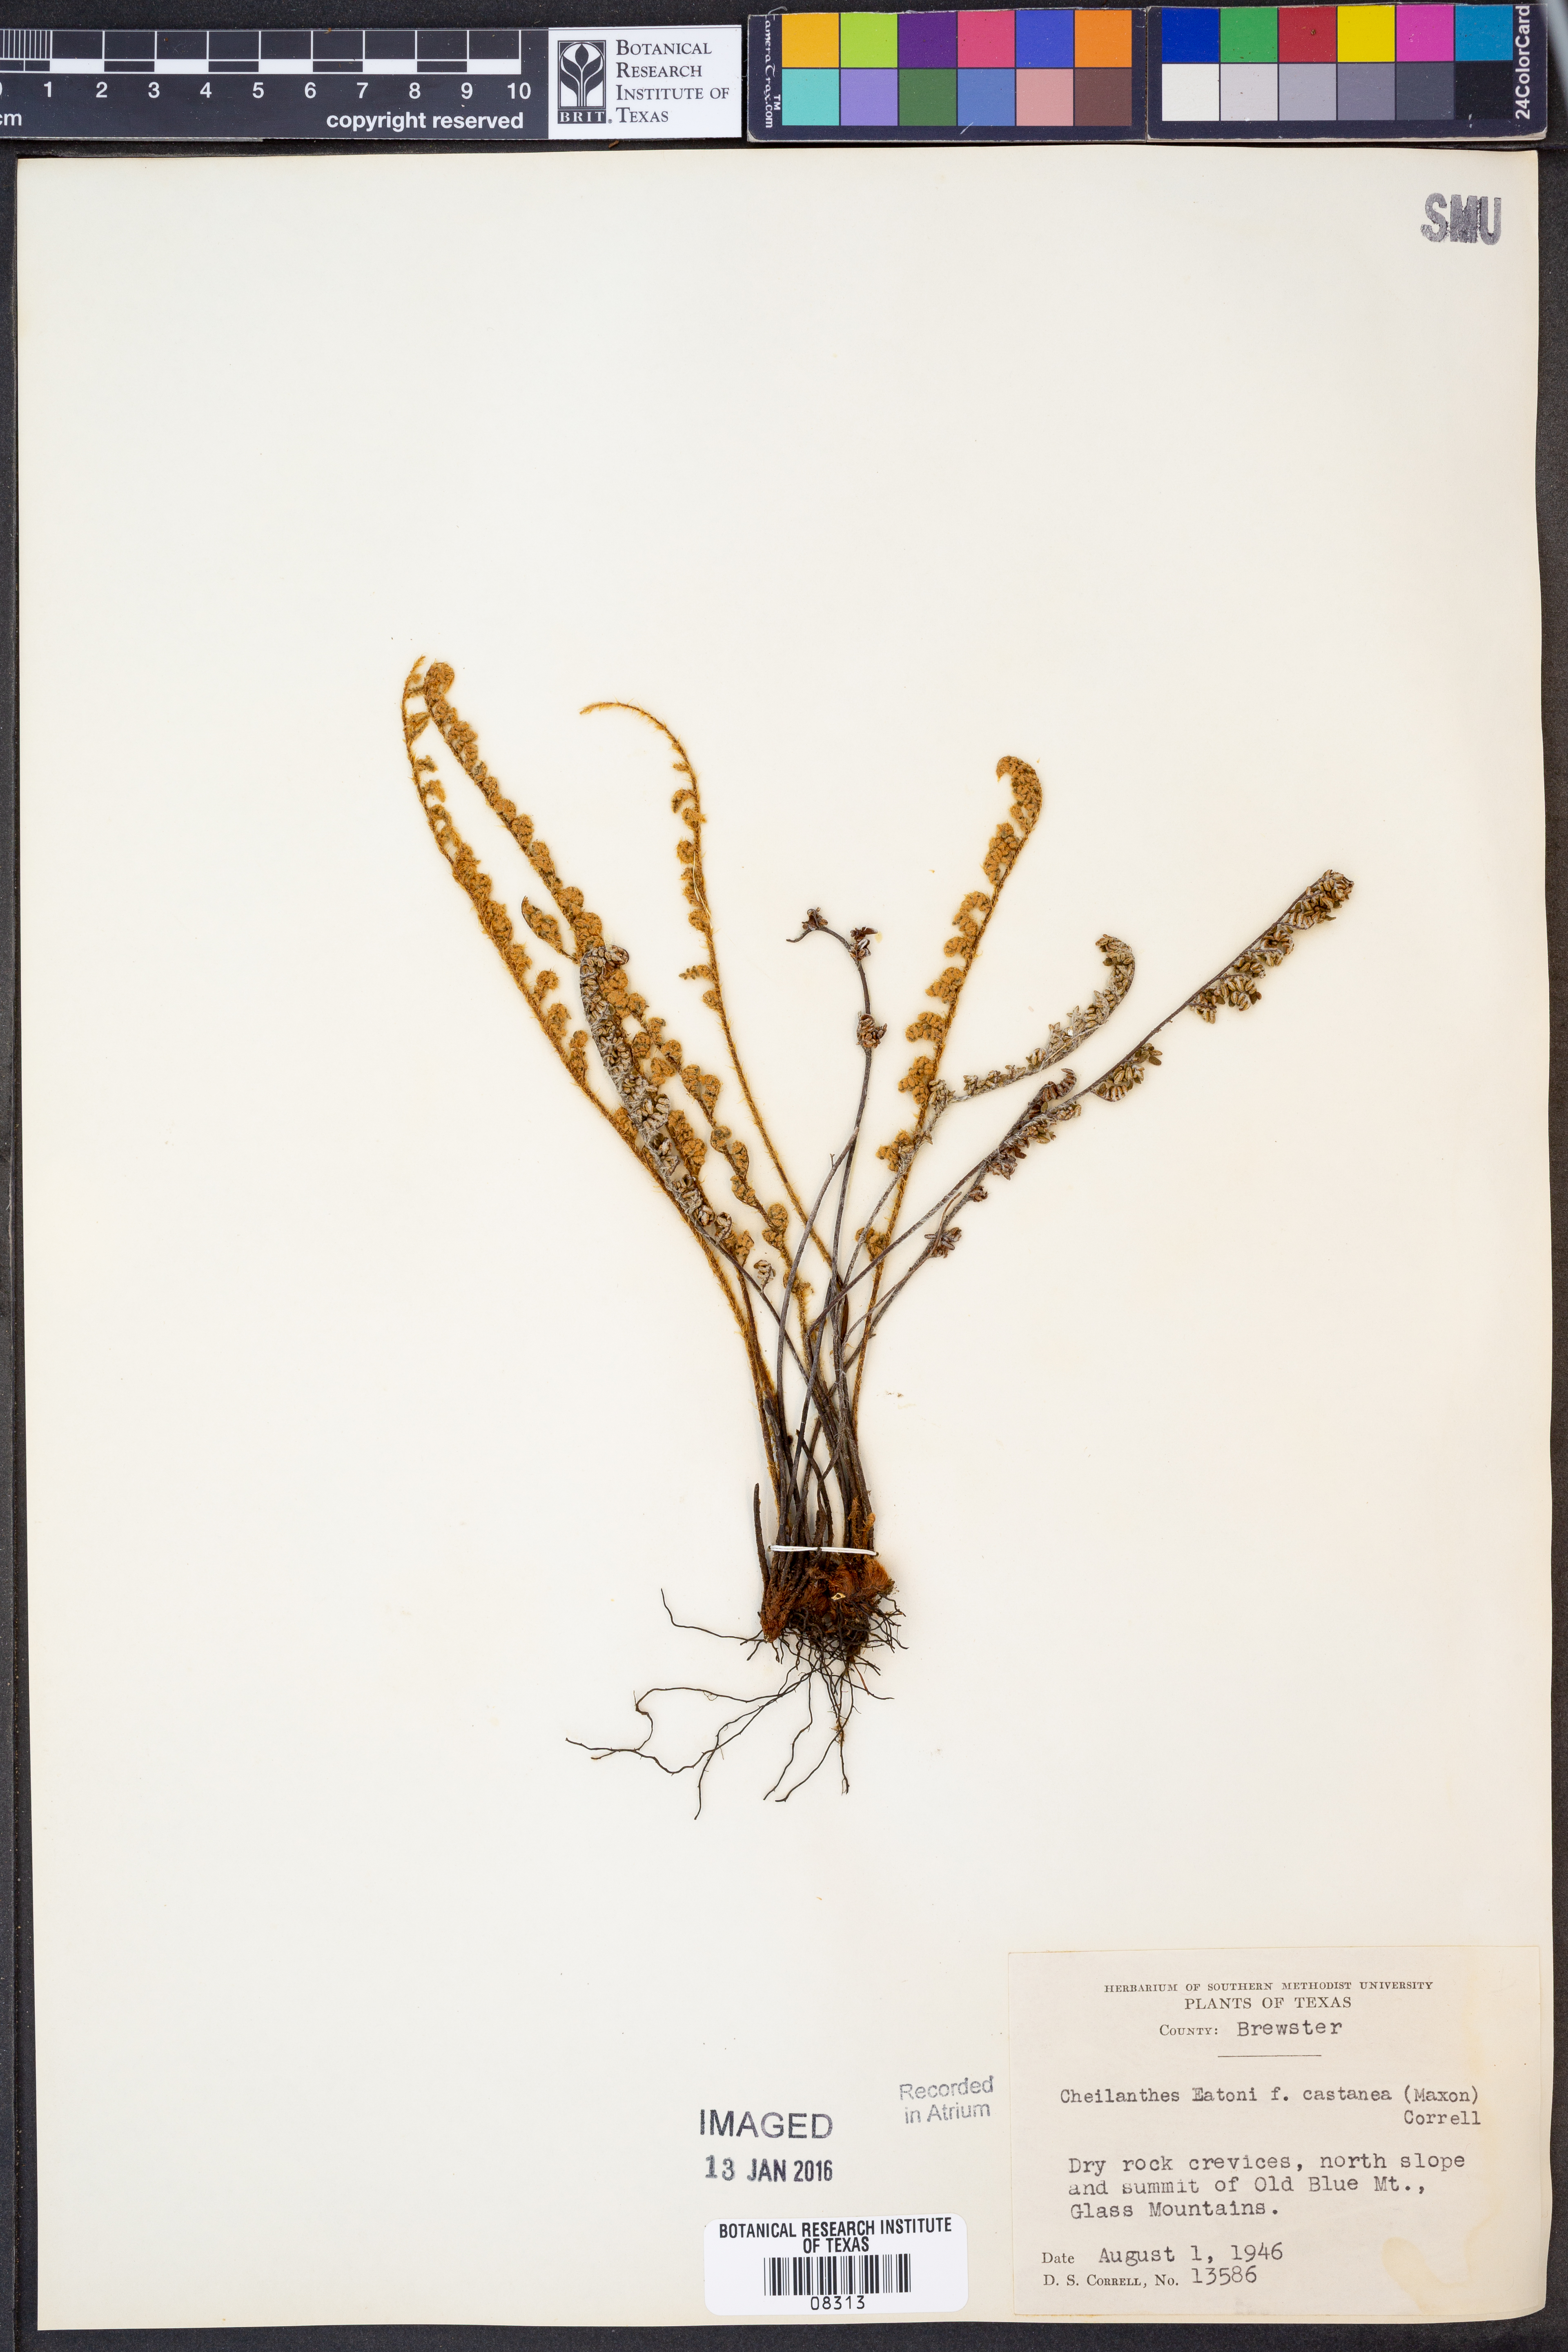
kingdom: Plantae
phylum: Tracheophyta
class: Polypodiopsida
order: Polypodiales
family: Pteridaceae
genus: Myriopteris
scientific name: Myriopteris rufa
